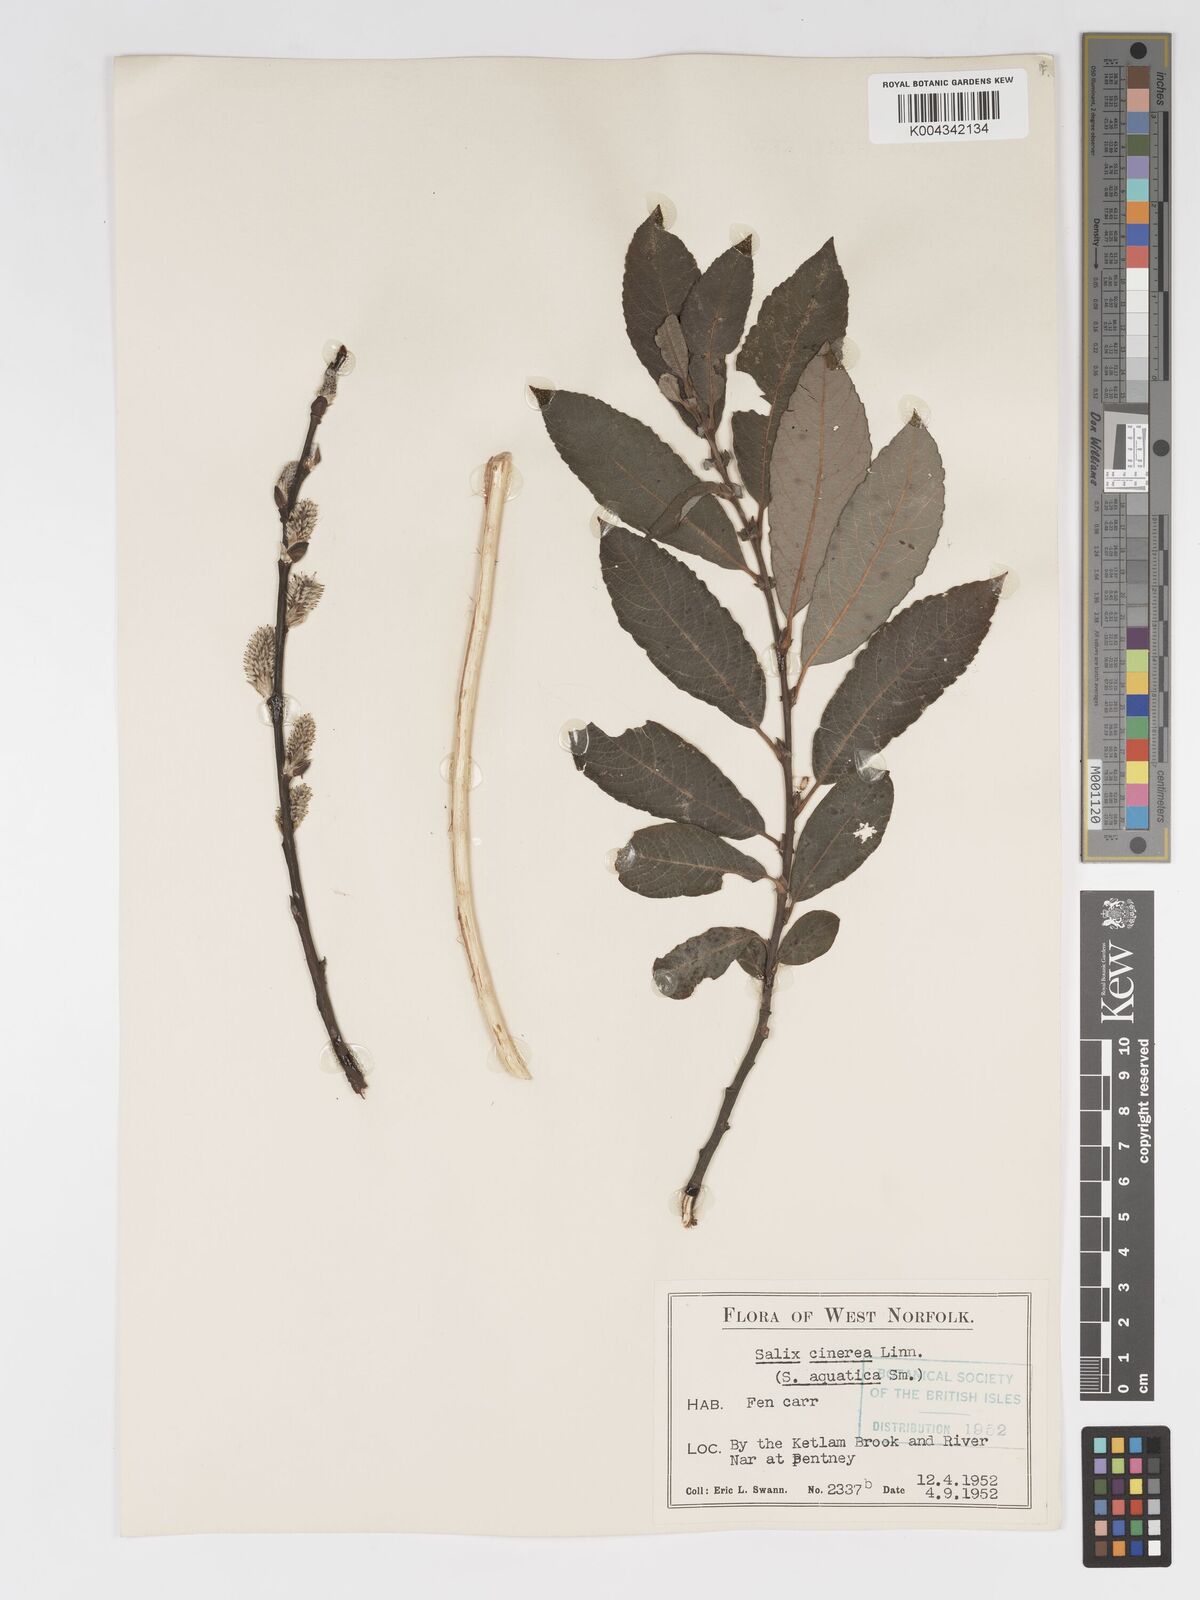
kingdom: Plantae
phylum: Tracheophyta
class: Magnoliopsida
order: Malpighiales
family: Salicaceae
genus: Salix
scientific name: Salix
